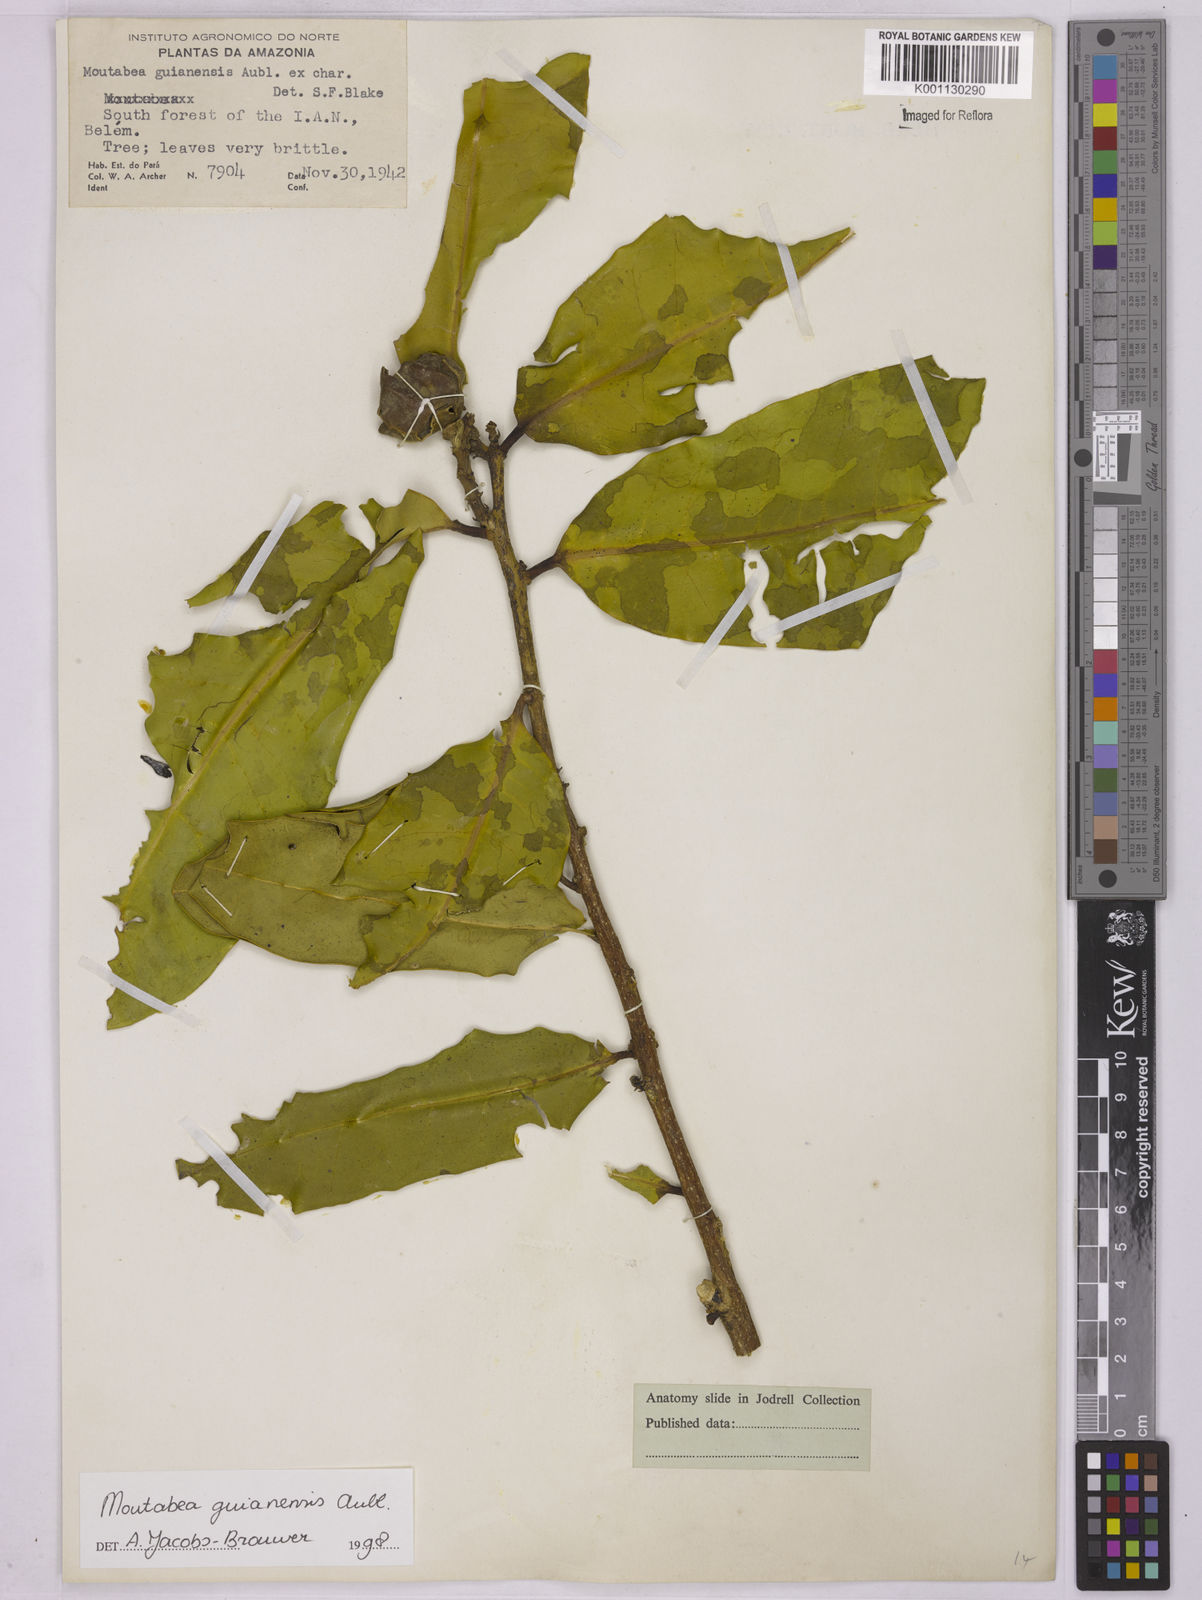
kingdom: Plantae
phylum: Tracheophyta
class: Magnoliopsida
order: Fabales
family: Polygalaceae
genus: Moutabea
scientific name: Moutabea guianensis
